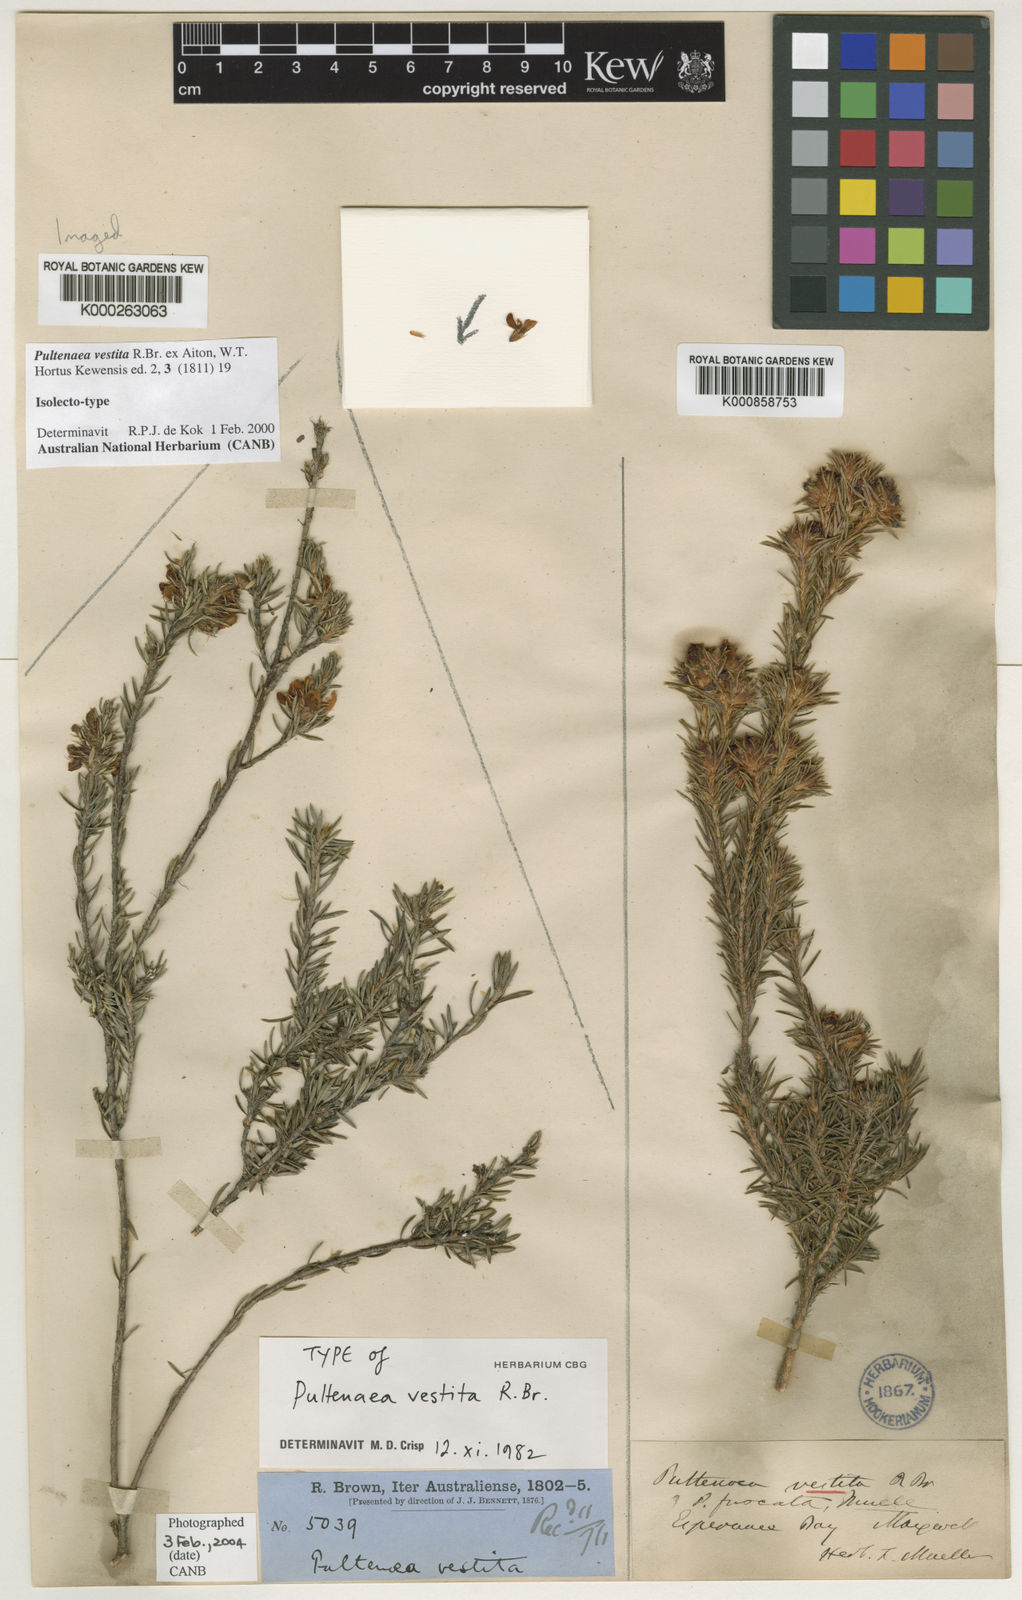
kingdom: Plantae
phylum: Tracheophyta
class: Magnoliopsida
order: Fabales
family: Fabaceae
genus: Pultenaea
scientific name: Pultenaea vestita
